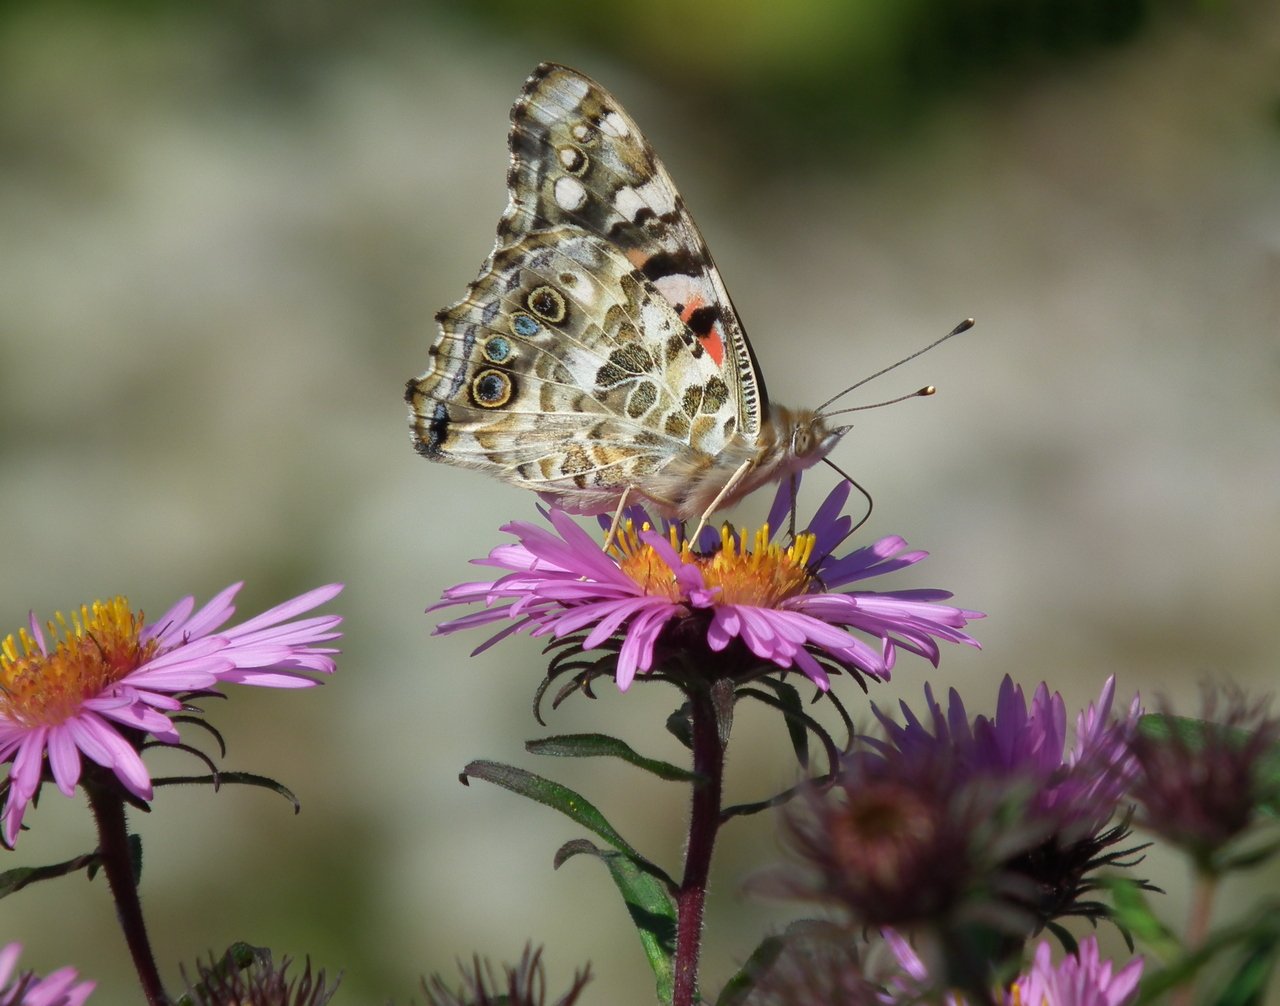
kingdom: Animalia
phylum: Arthropoda
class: Insecta
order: Lepidoptera
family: Nymphalidae
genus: Vanessa
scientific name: Vanessa cardui
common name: Painted Lady
